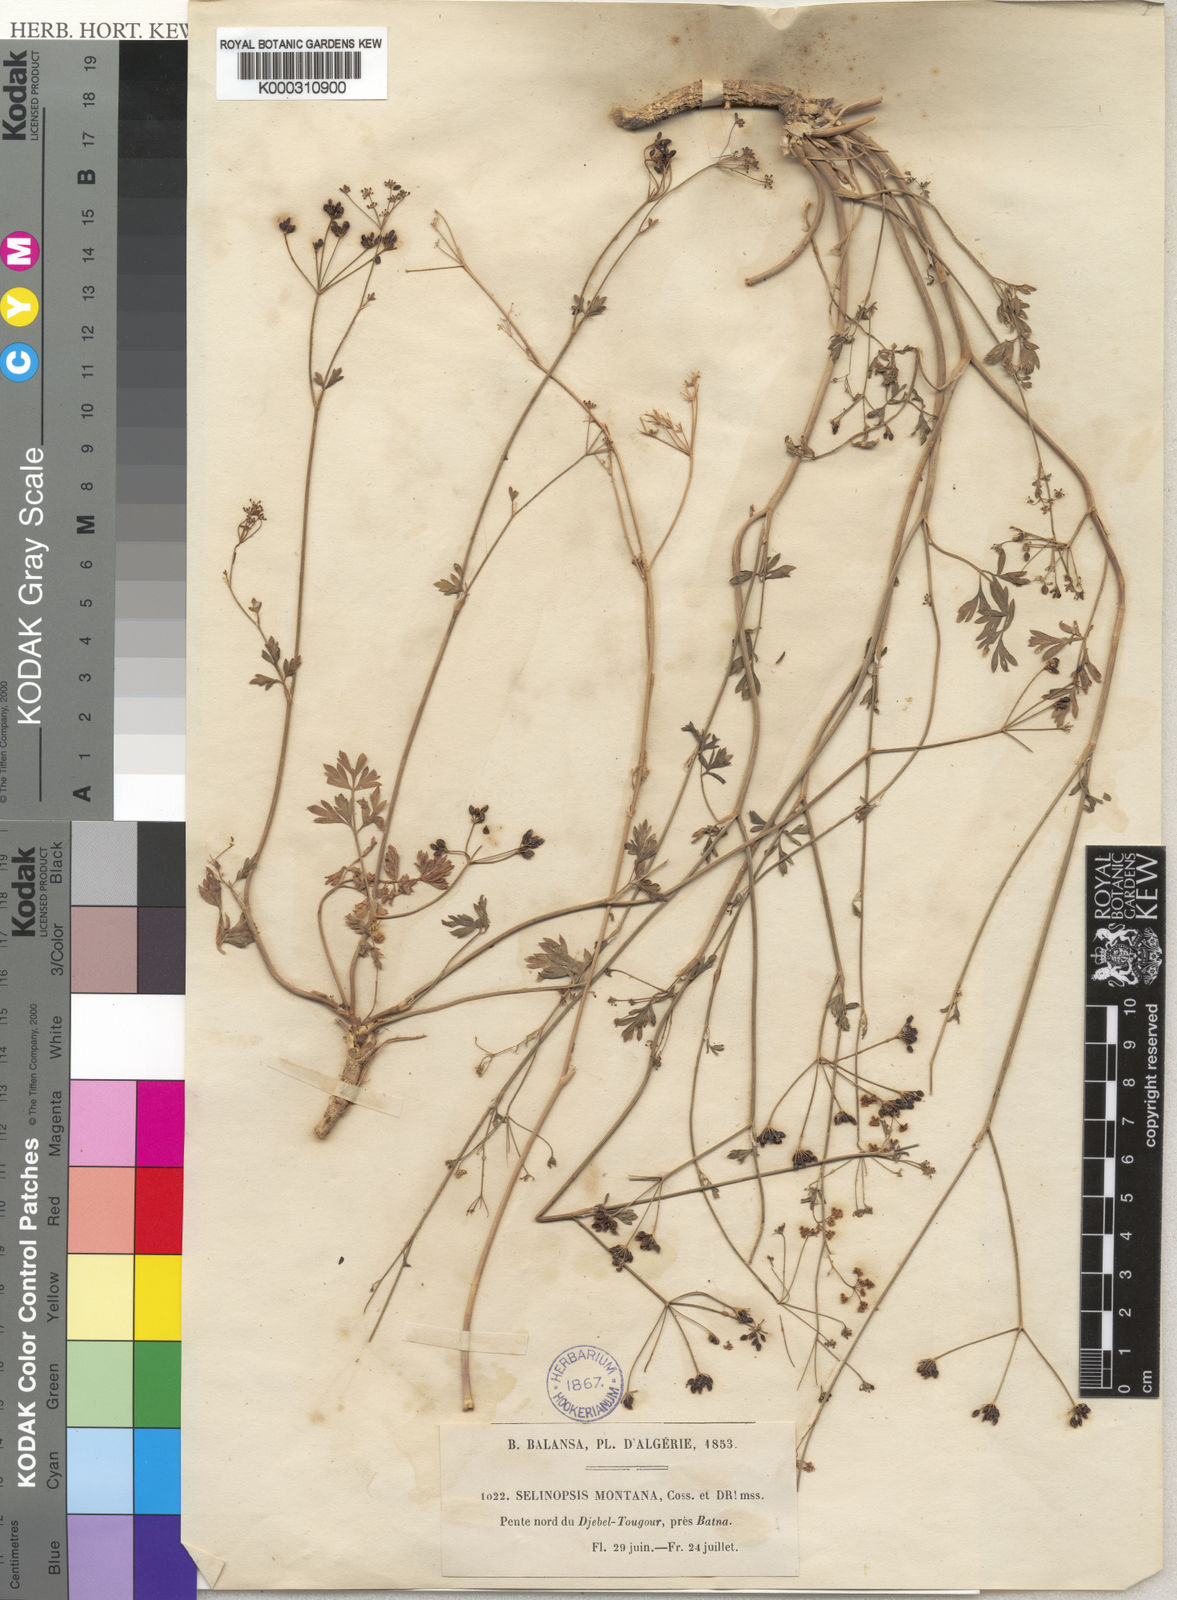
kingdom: Plantae
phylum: Tracheophyta
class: Magnoliopsida
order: Apiales
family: Apiaceae
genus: Perideridia
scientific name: Perideridia gairdneri
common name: False caraway
